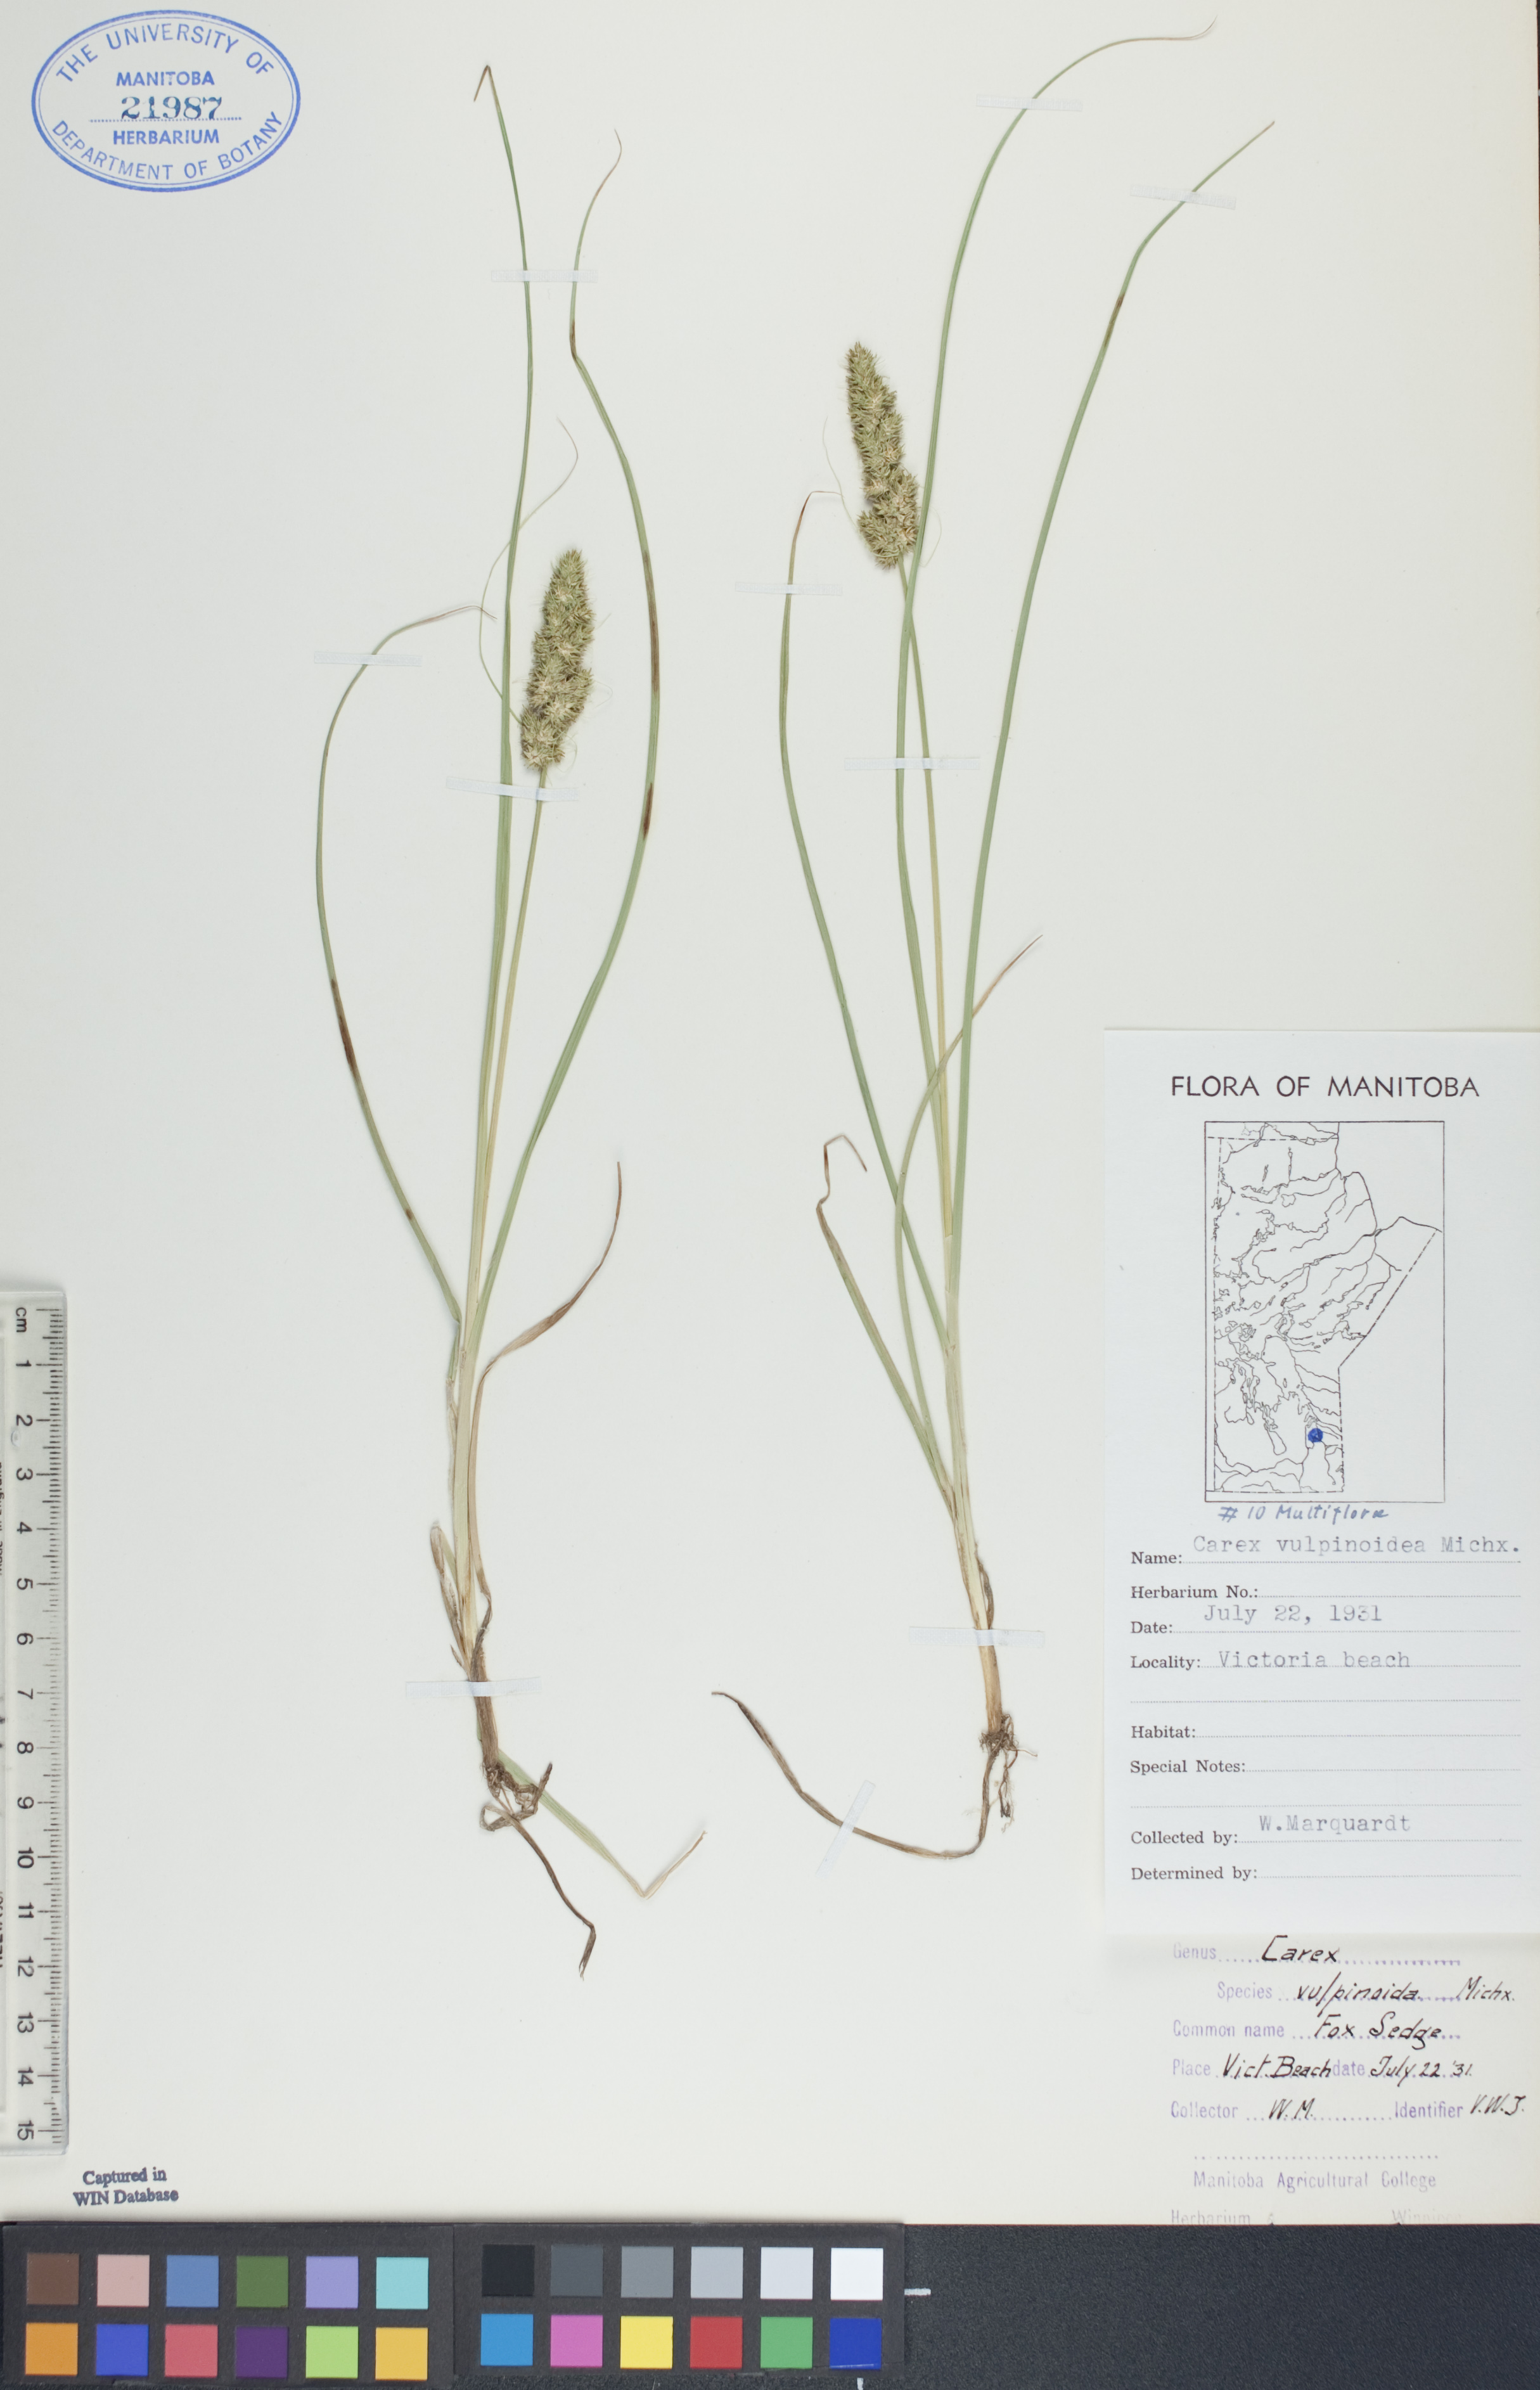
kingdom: Plantae
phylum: Tracheophyta
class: Liliopsida
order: Poales
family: Cyperaceae
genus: Carex
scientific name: Carex vulpinoidea
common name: American fox-sedge
